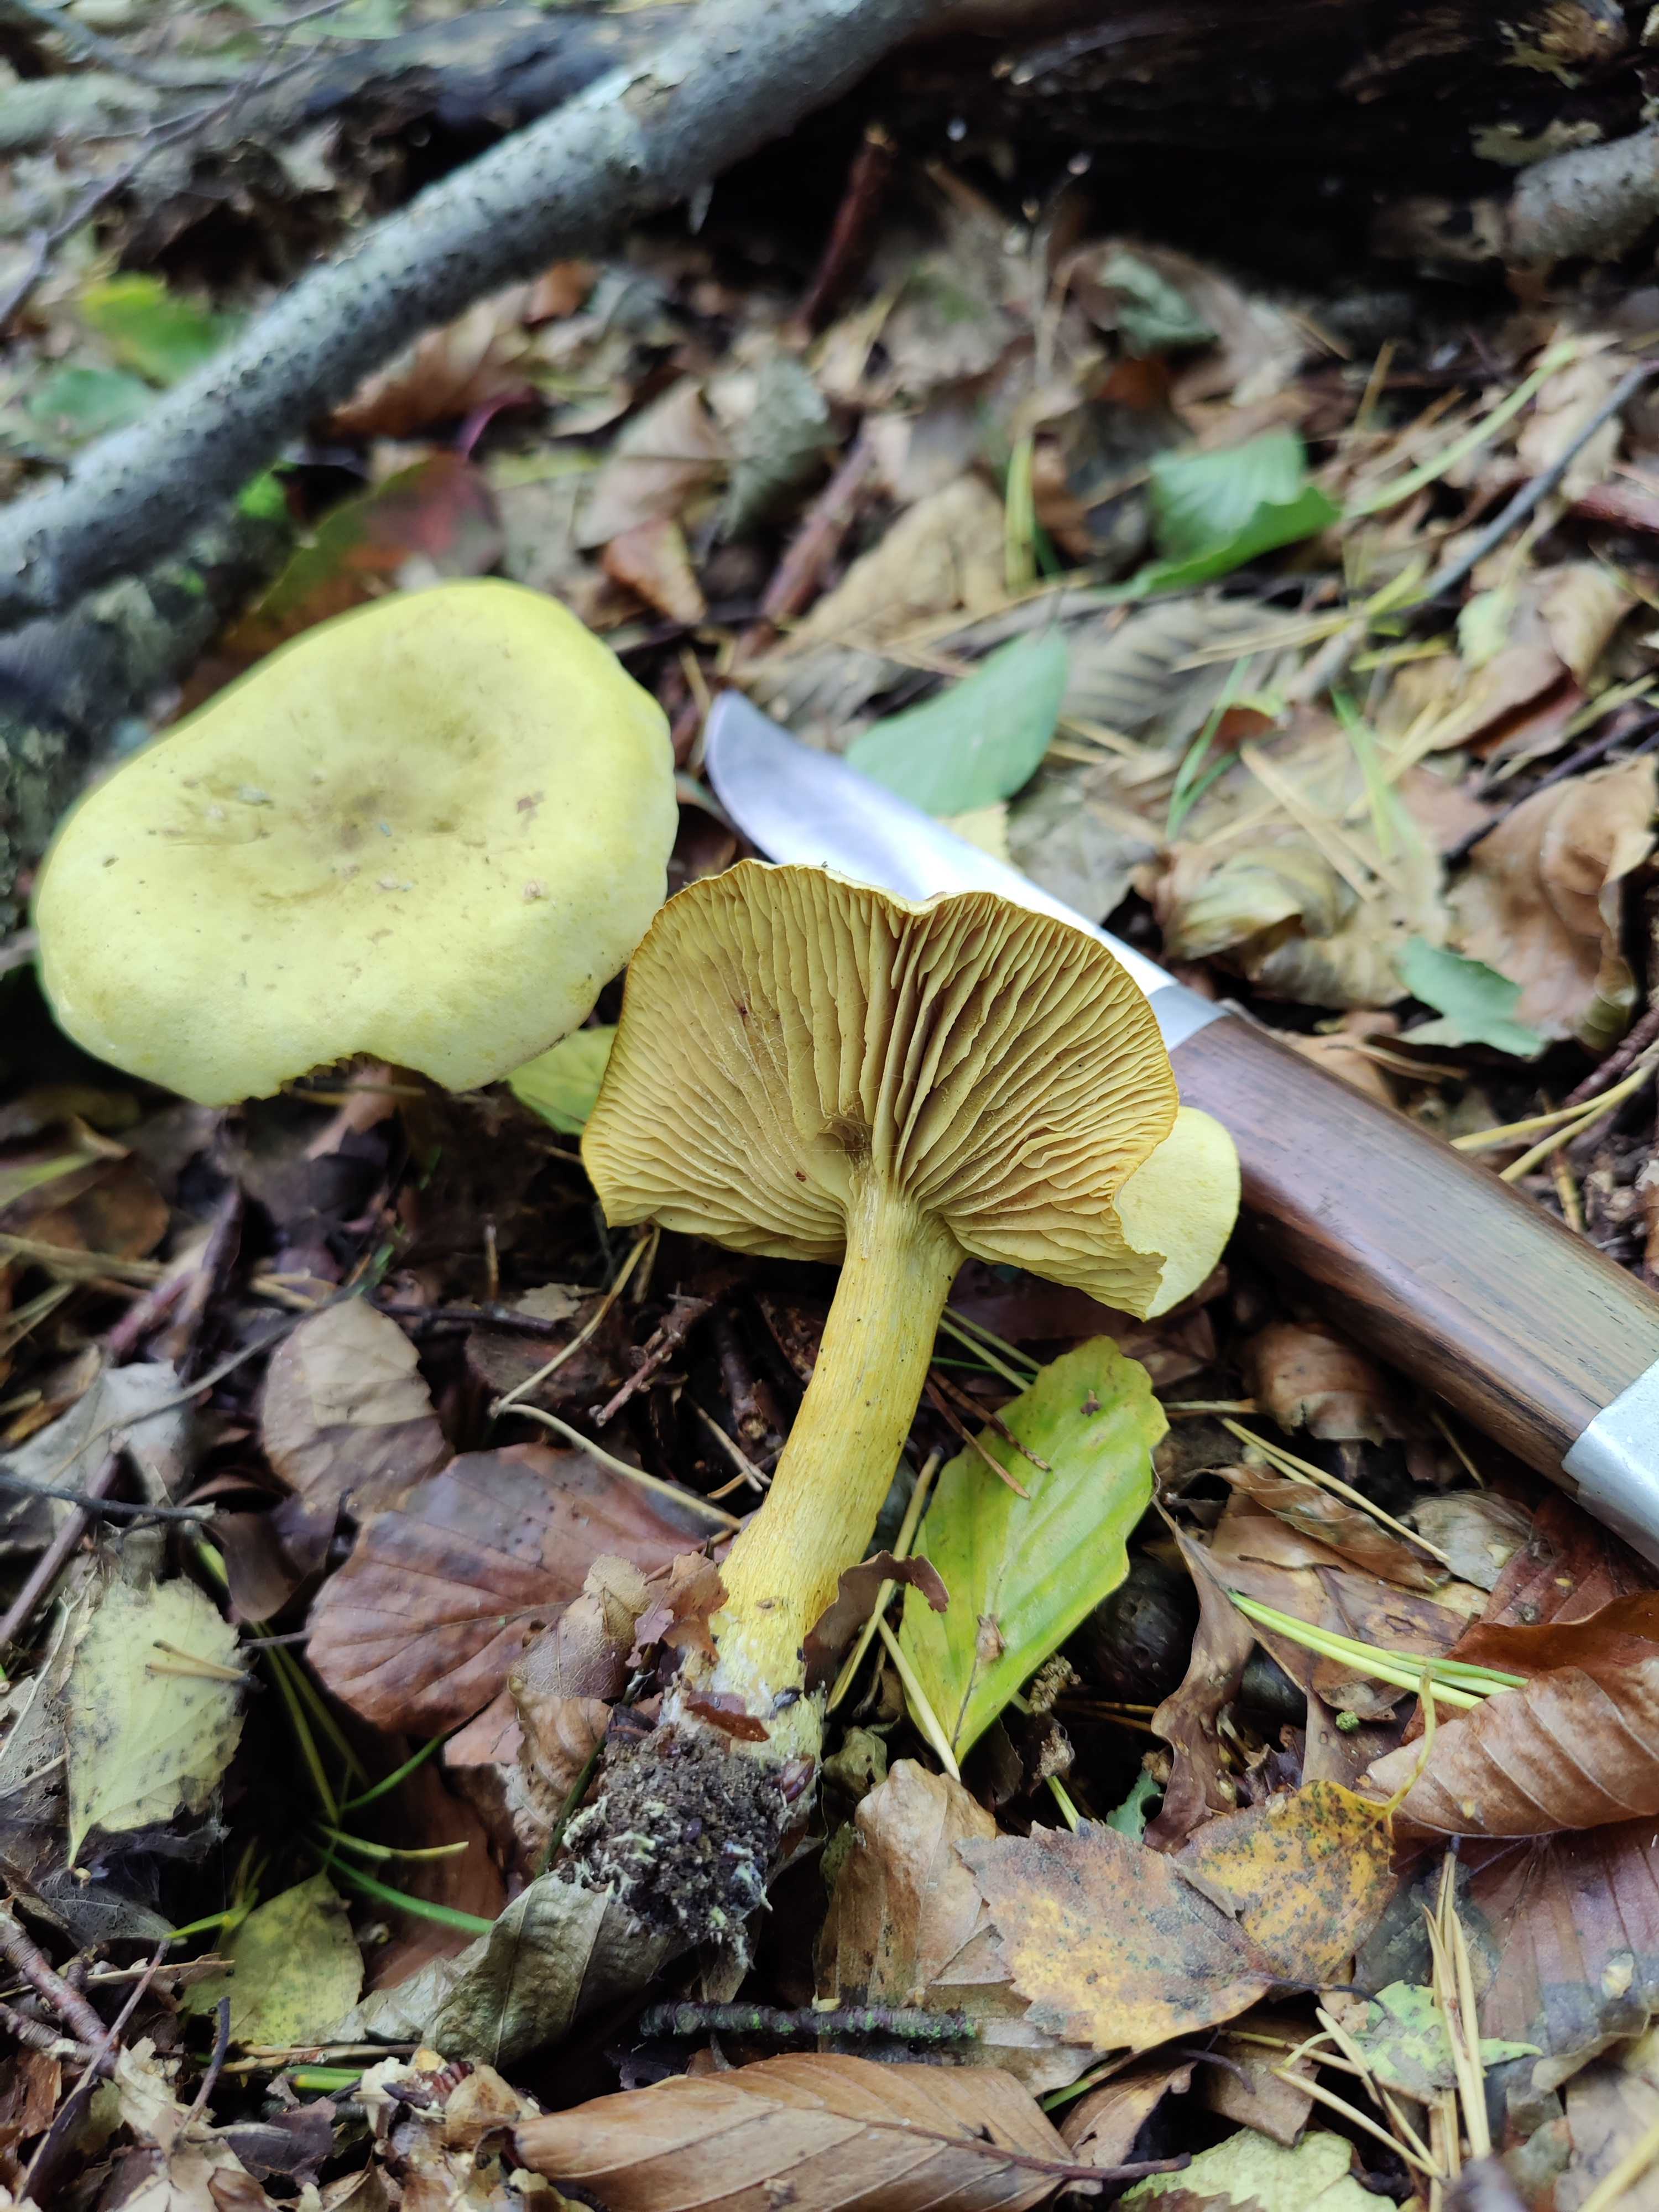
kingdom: Fungi
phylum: Basidiomycota
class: Agaricomycetes
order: Agaricales
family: Tricholomataceae
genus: Tricholoma
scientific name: Tricholoma sulphureum
